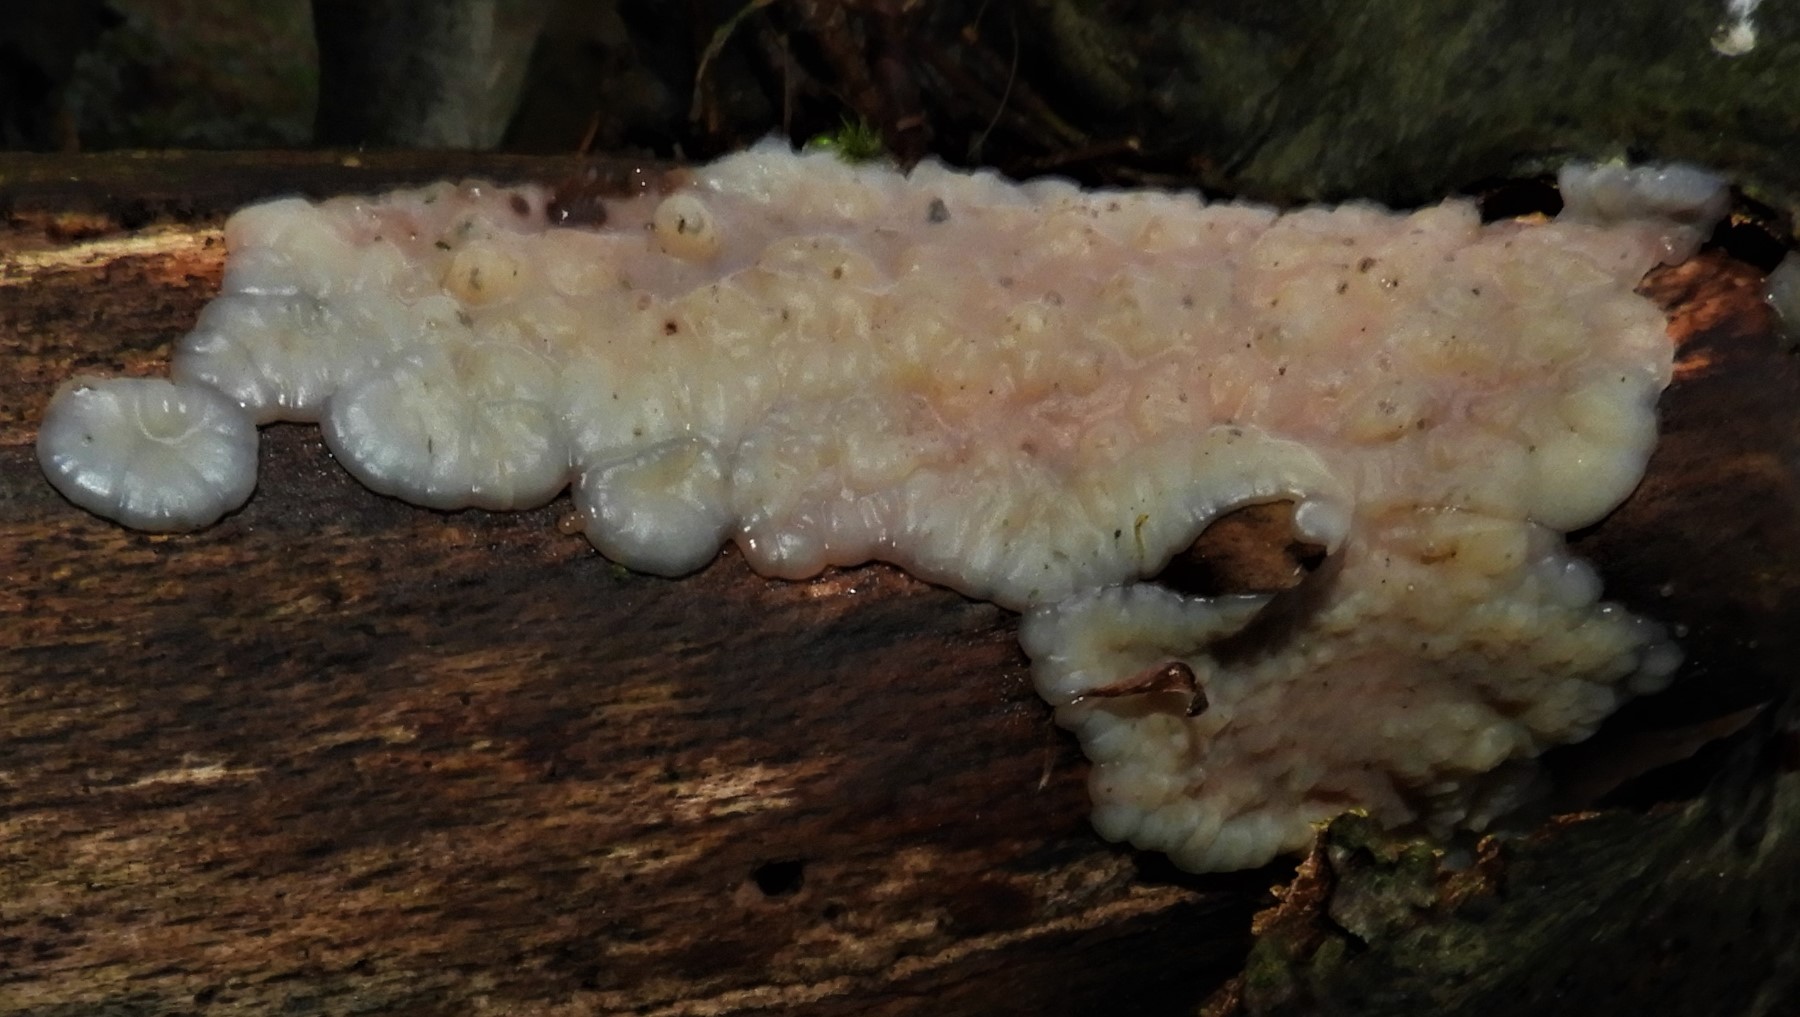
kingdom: Fungi
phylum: Basidiomycota
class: Agaricomycetes
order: Auriculariales
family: Auriculariaceae
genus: Exidia
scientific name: Exidia thuretiana
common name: hvidlig bævretop
